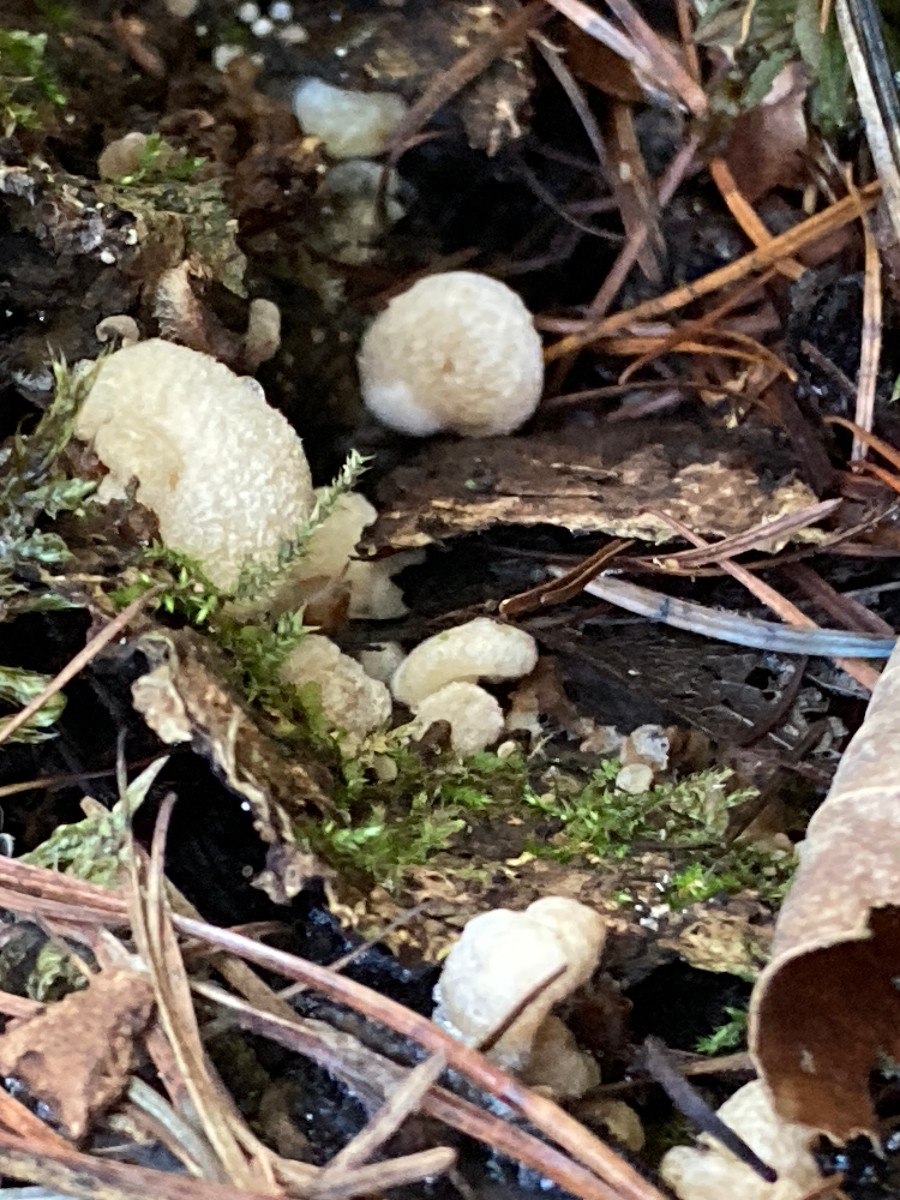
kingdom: Fungi
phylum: Basidiomycota
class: Agaricomycetes
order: Agaricales
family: Crepidotaceae
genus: Crepidotus
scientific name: Crepidotus mollis
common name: blød muslingesvamp
